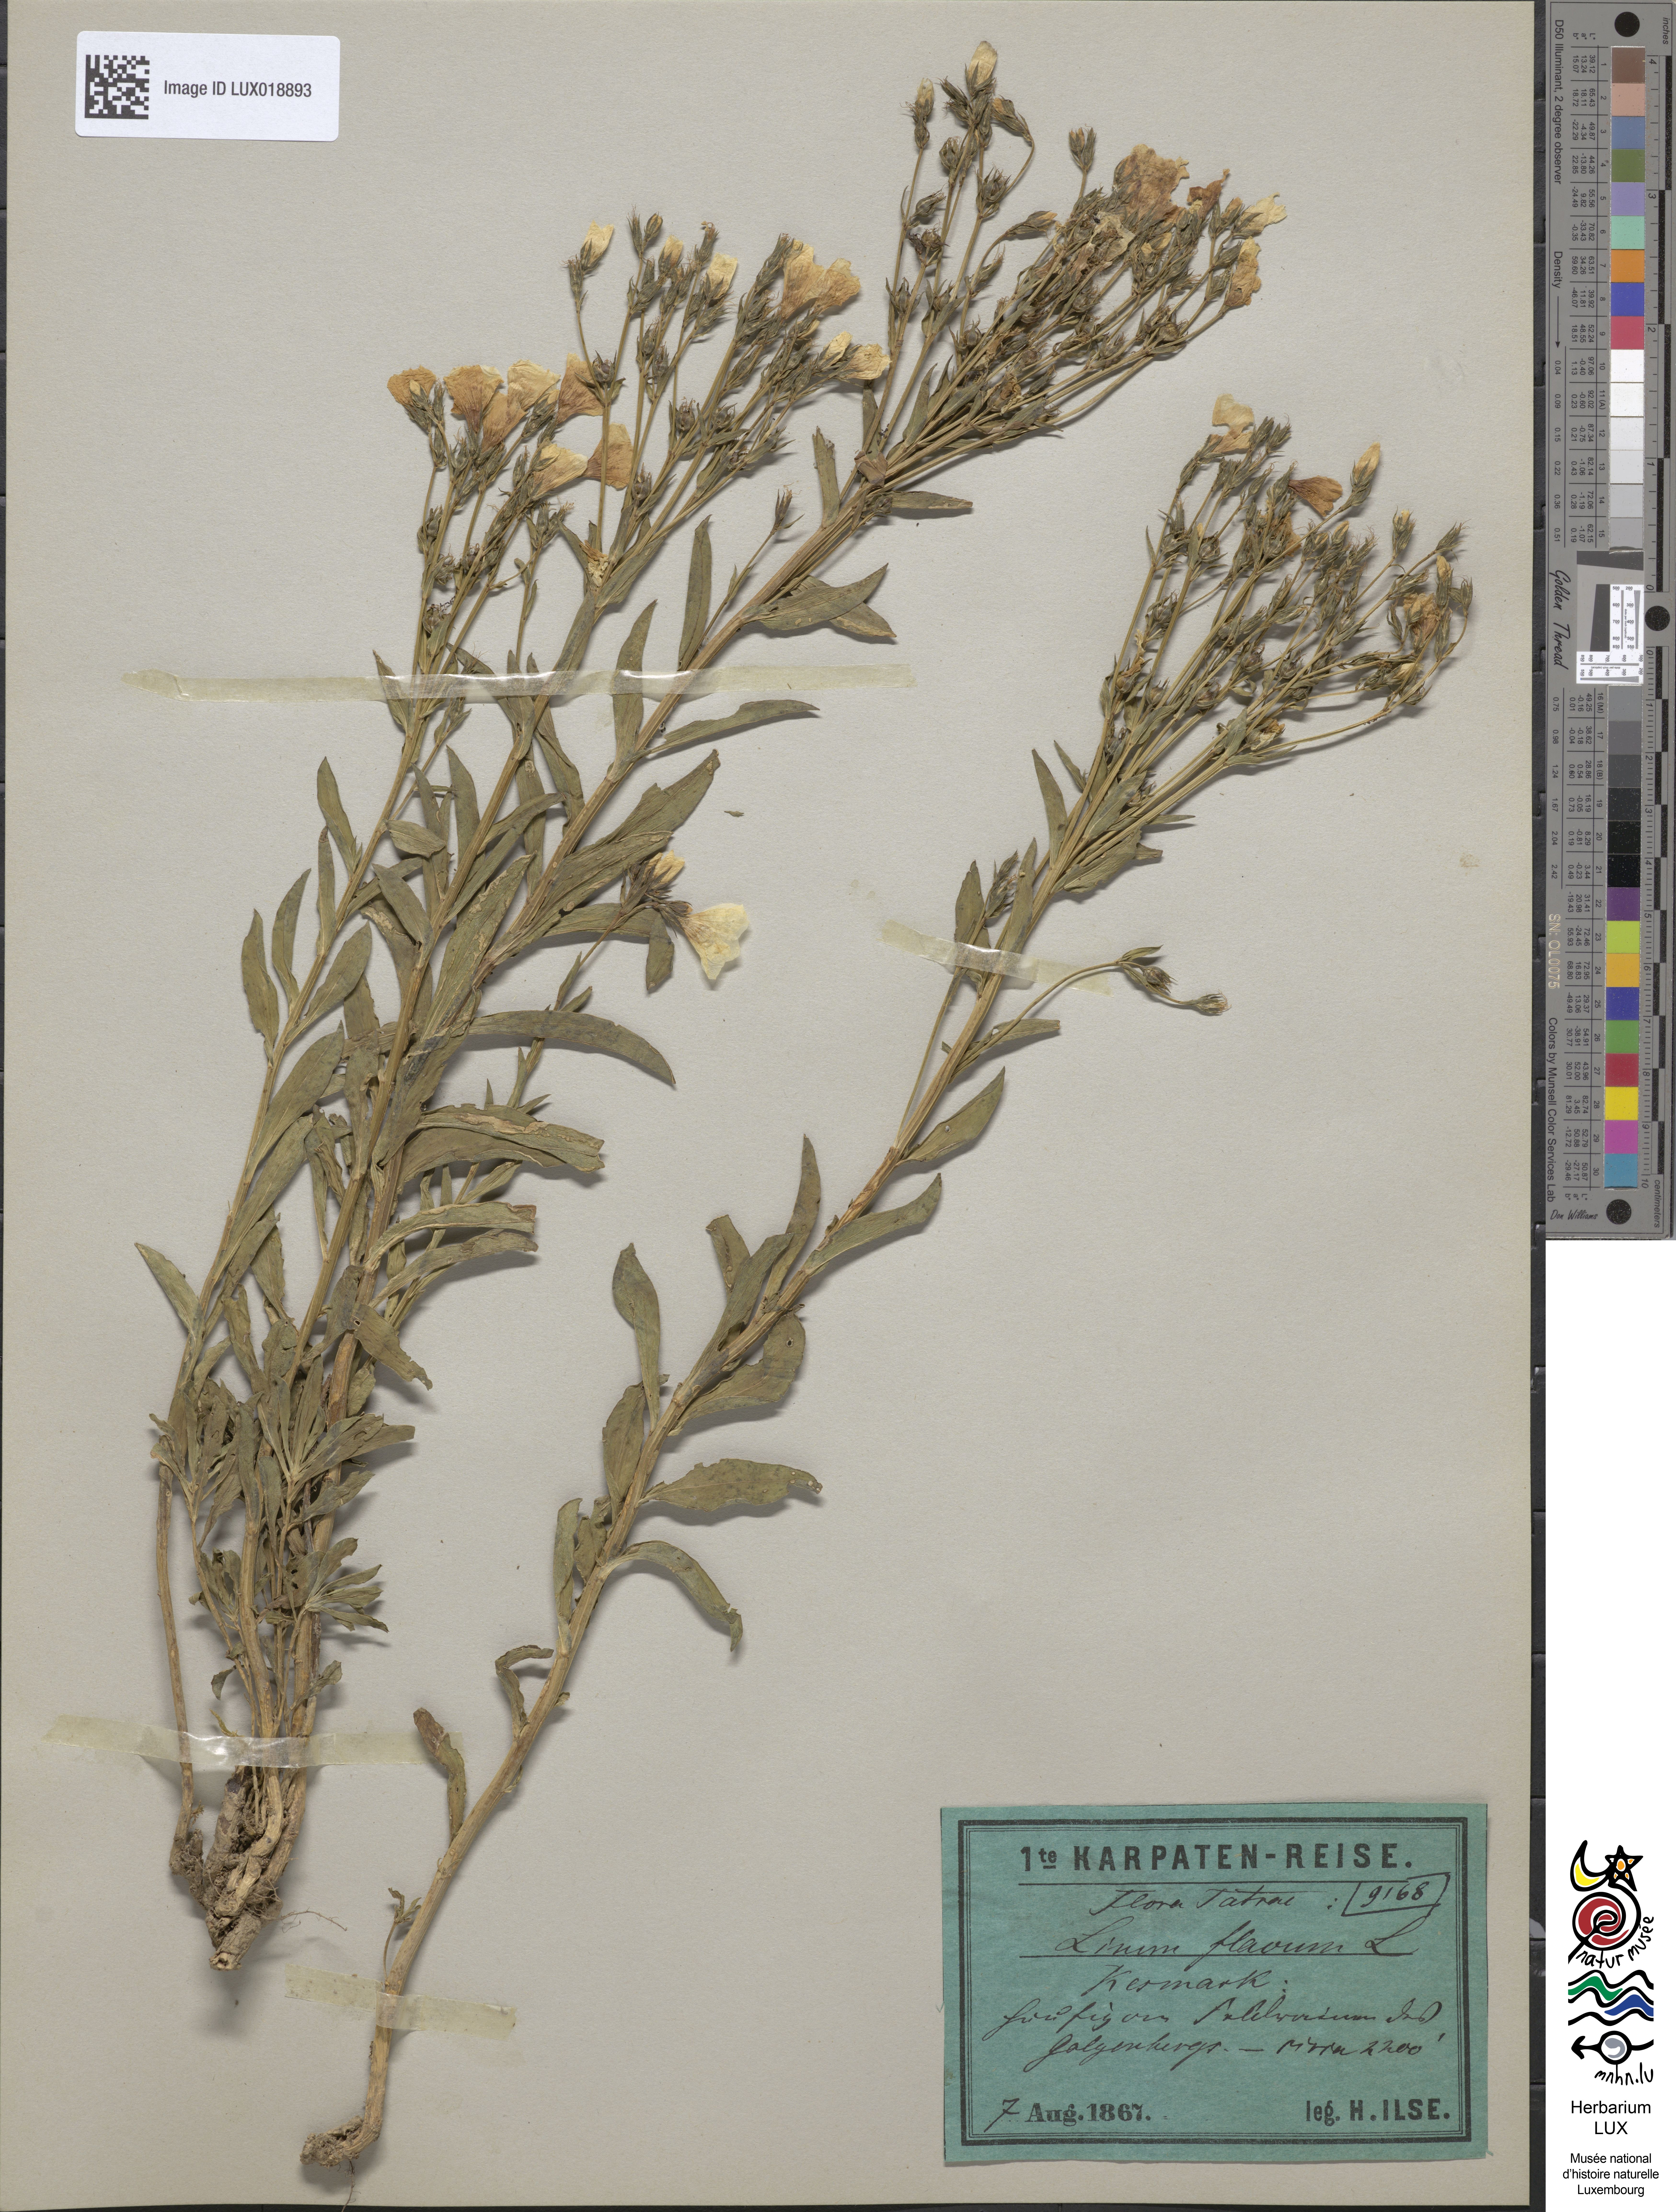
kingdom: Plantae
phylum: Tracheophyta
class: Magnoliopsida
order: Malpighiales
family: Linaceae
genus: Linum
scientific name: Linum flavum
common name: Yellow flax
